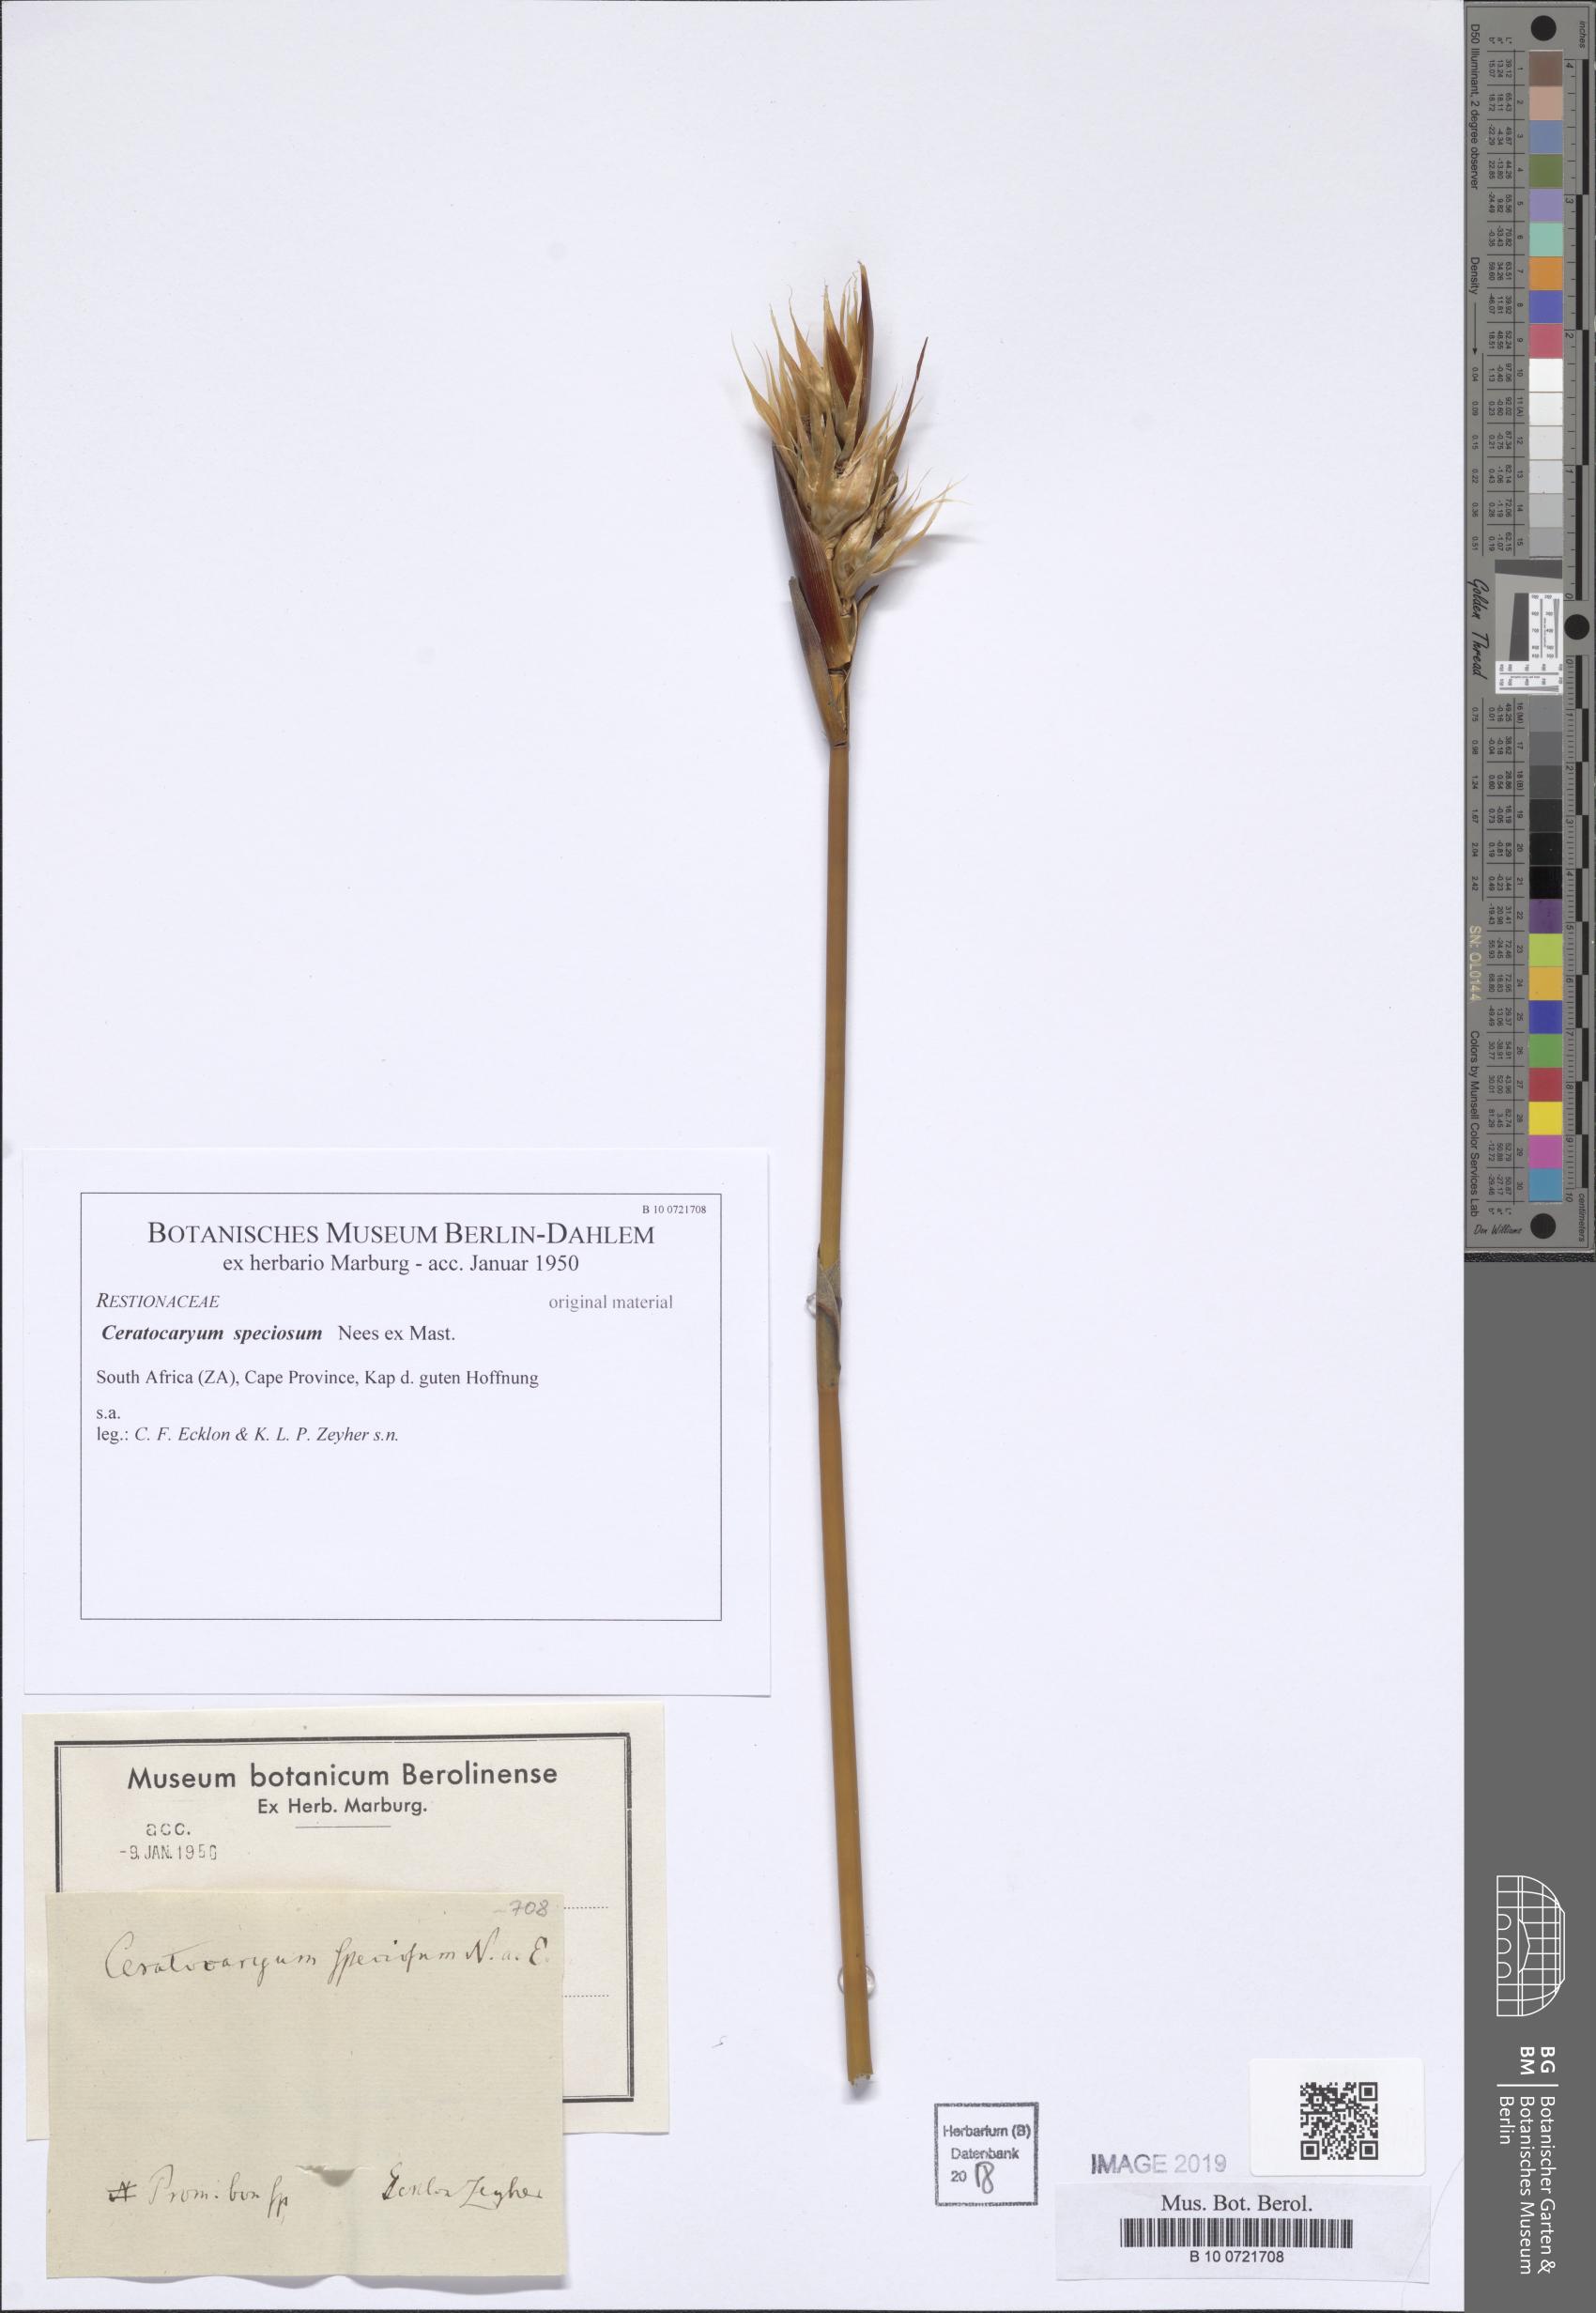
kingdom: Plantae
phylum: Tracheophyta
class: Liliopsida
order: Poales
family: Restionaceae
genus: Ceratocaryum
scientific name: Ceratocaryum argenteum
